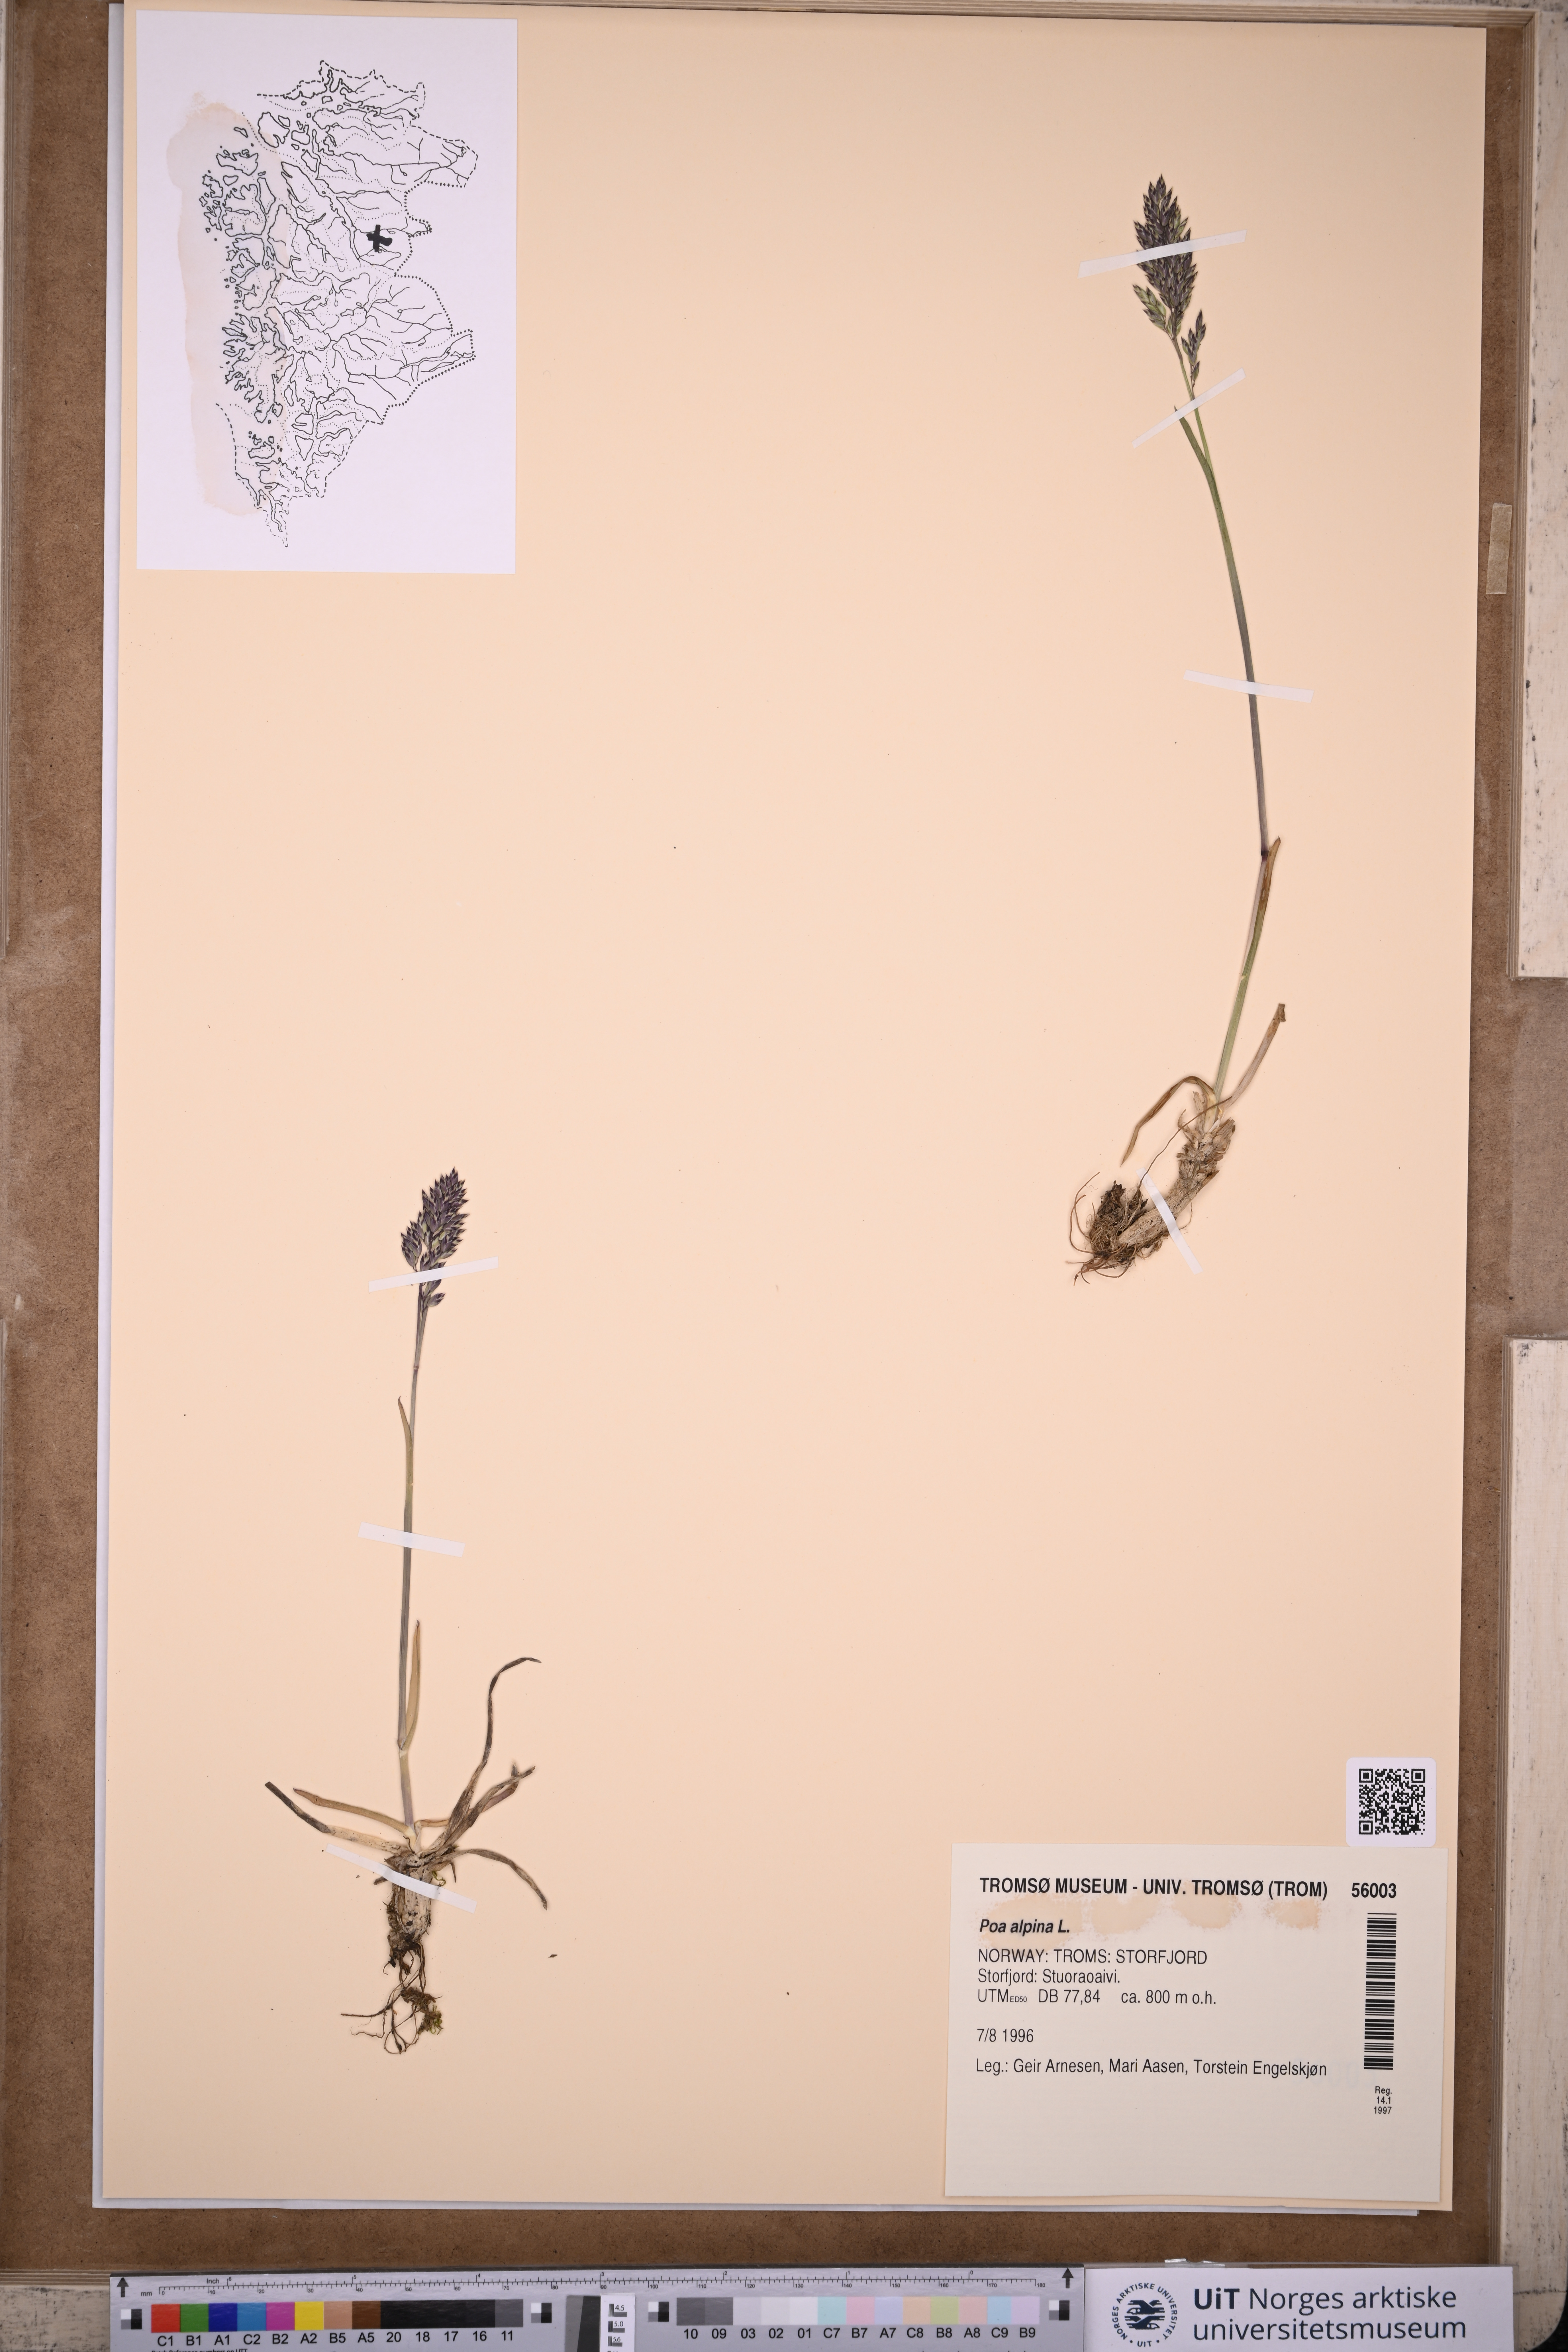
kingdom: Plantae
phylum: Tracheophyta
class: Liliopsida
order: Poales
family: Poaceae
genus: Poa
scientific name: Poa alpina
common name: Alpine bluegrass
